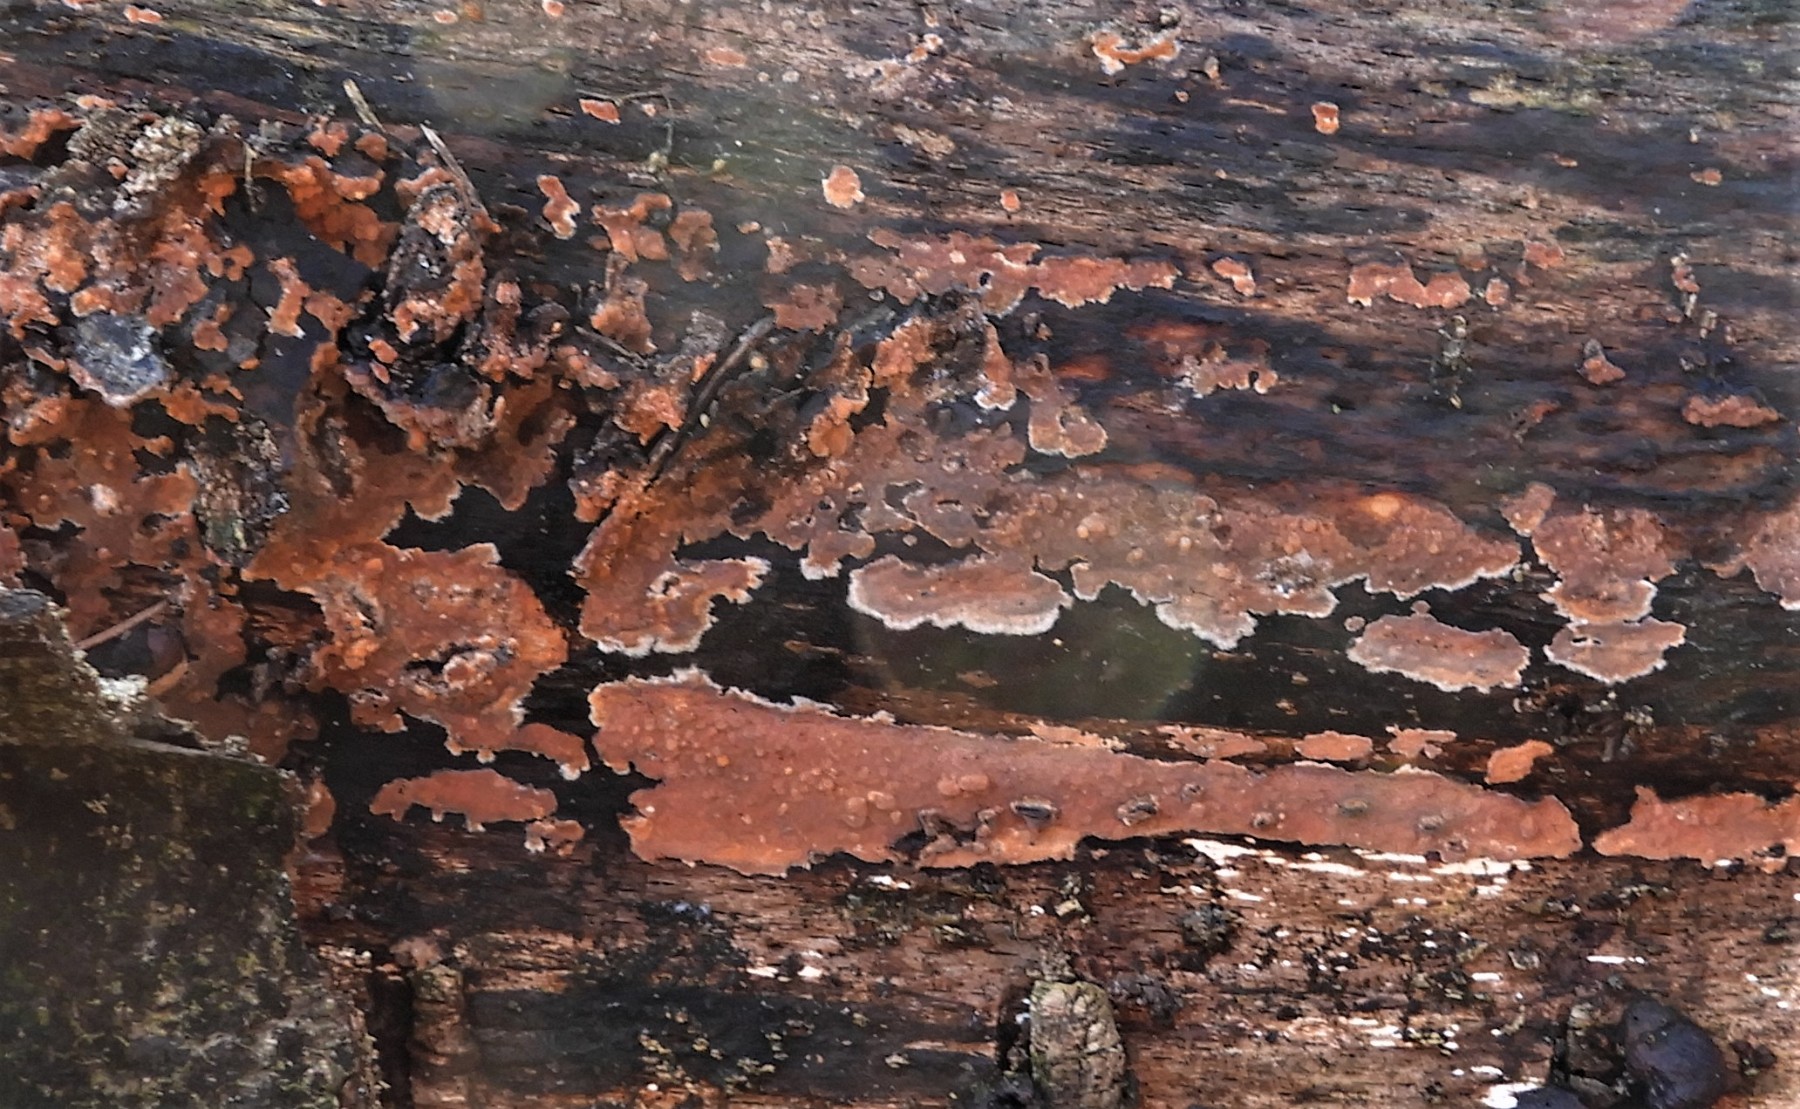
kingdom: Fungi
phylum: Basidiomycota
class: Agaricomycetes
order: Russulales
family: Peniophoraceae
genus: Peniophora
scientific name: Peniophora incarnata
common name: laksefarvet voksskind
